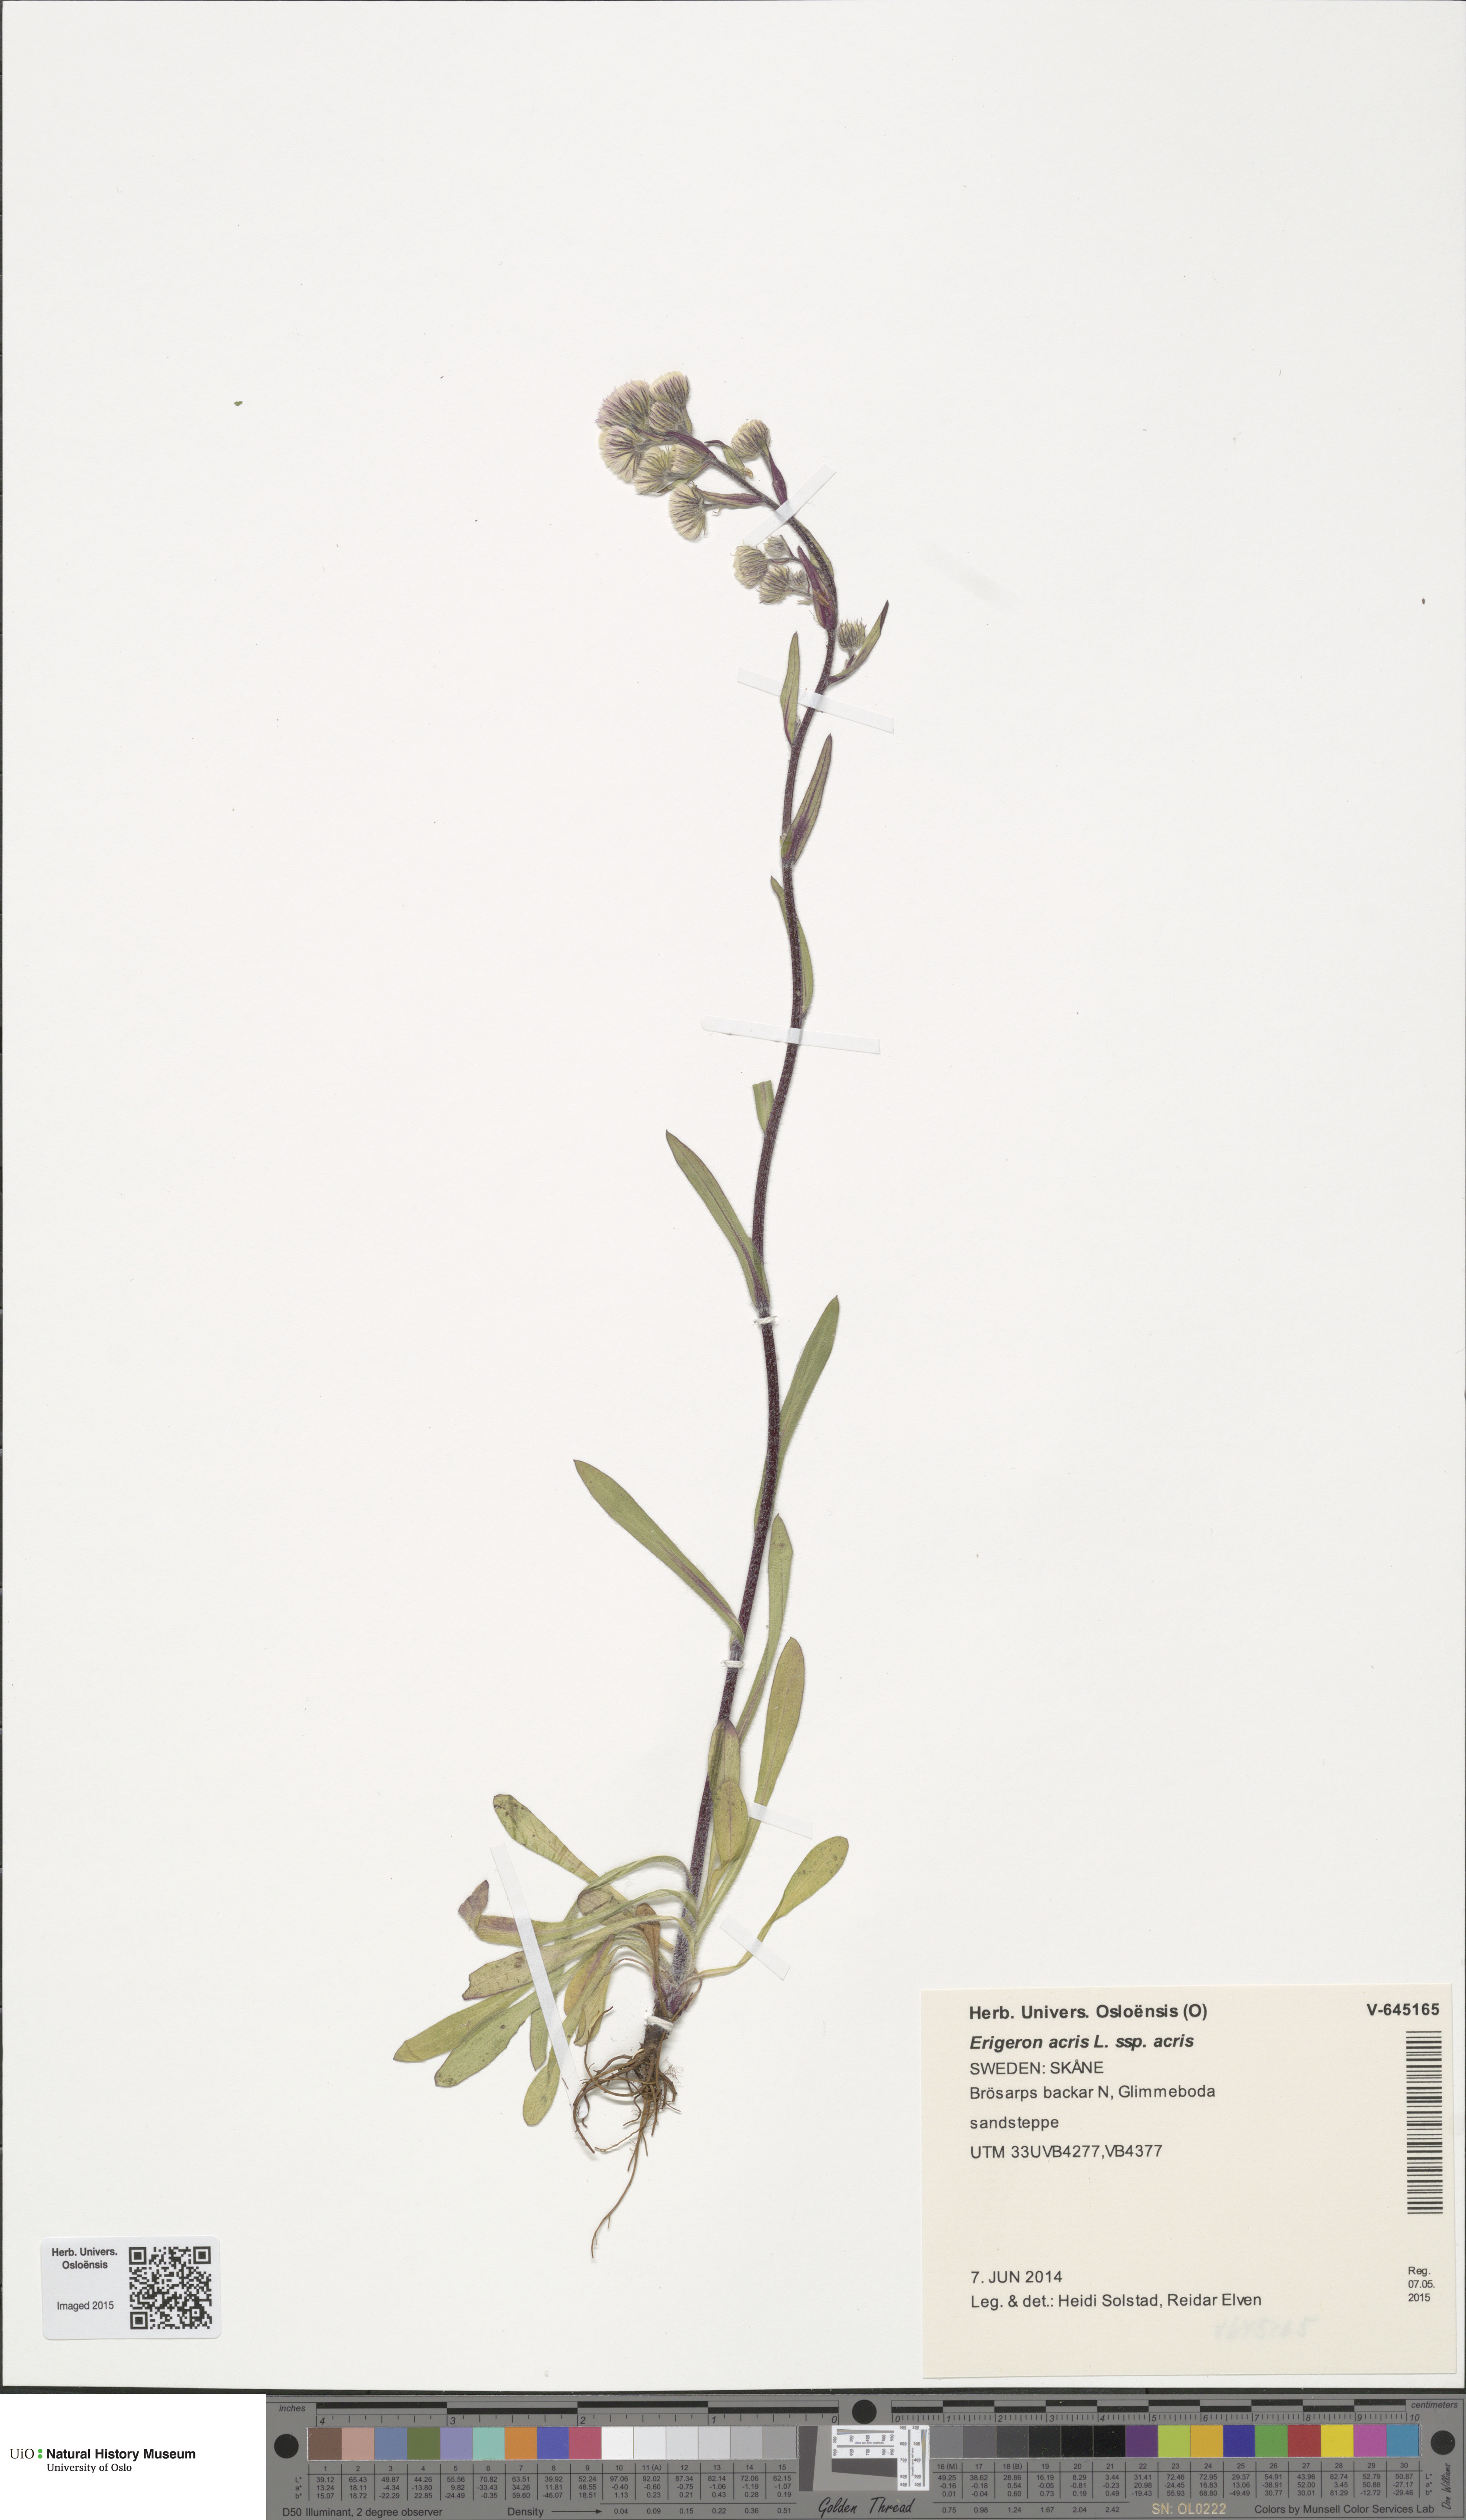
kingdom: Plantae
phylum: Tracheophyta
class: Magnoliopsida
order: Asterales
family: Asteraceae
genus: Erigeron
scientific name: Erigeron acris
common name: Blue fleabane
